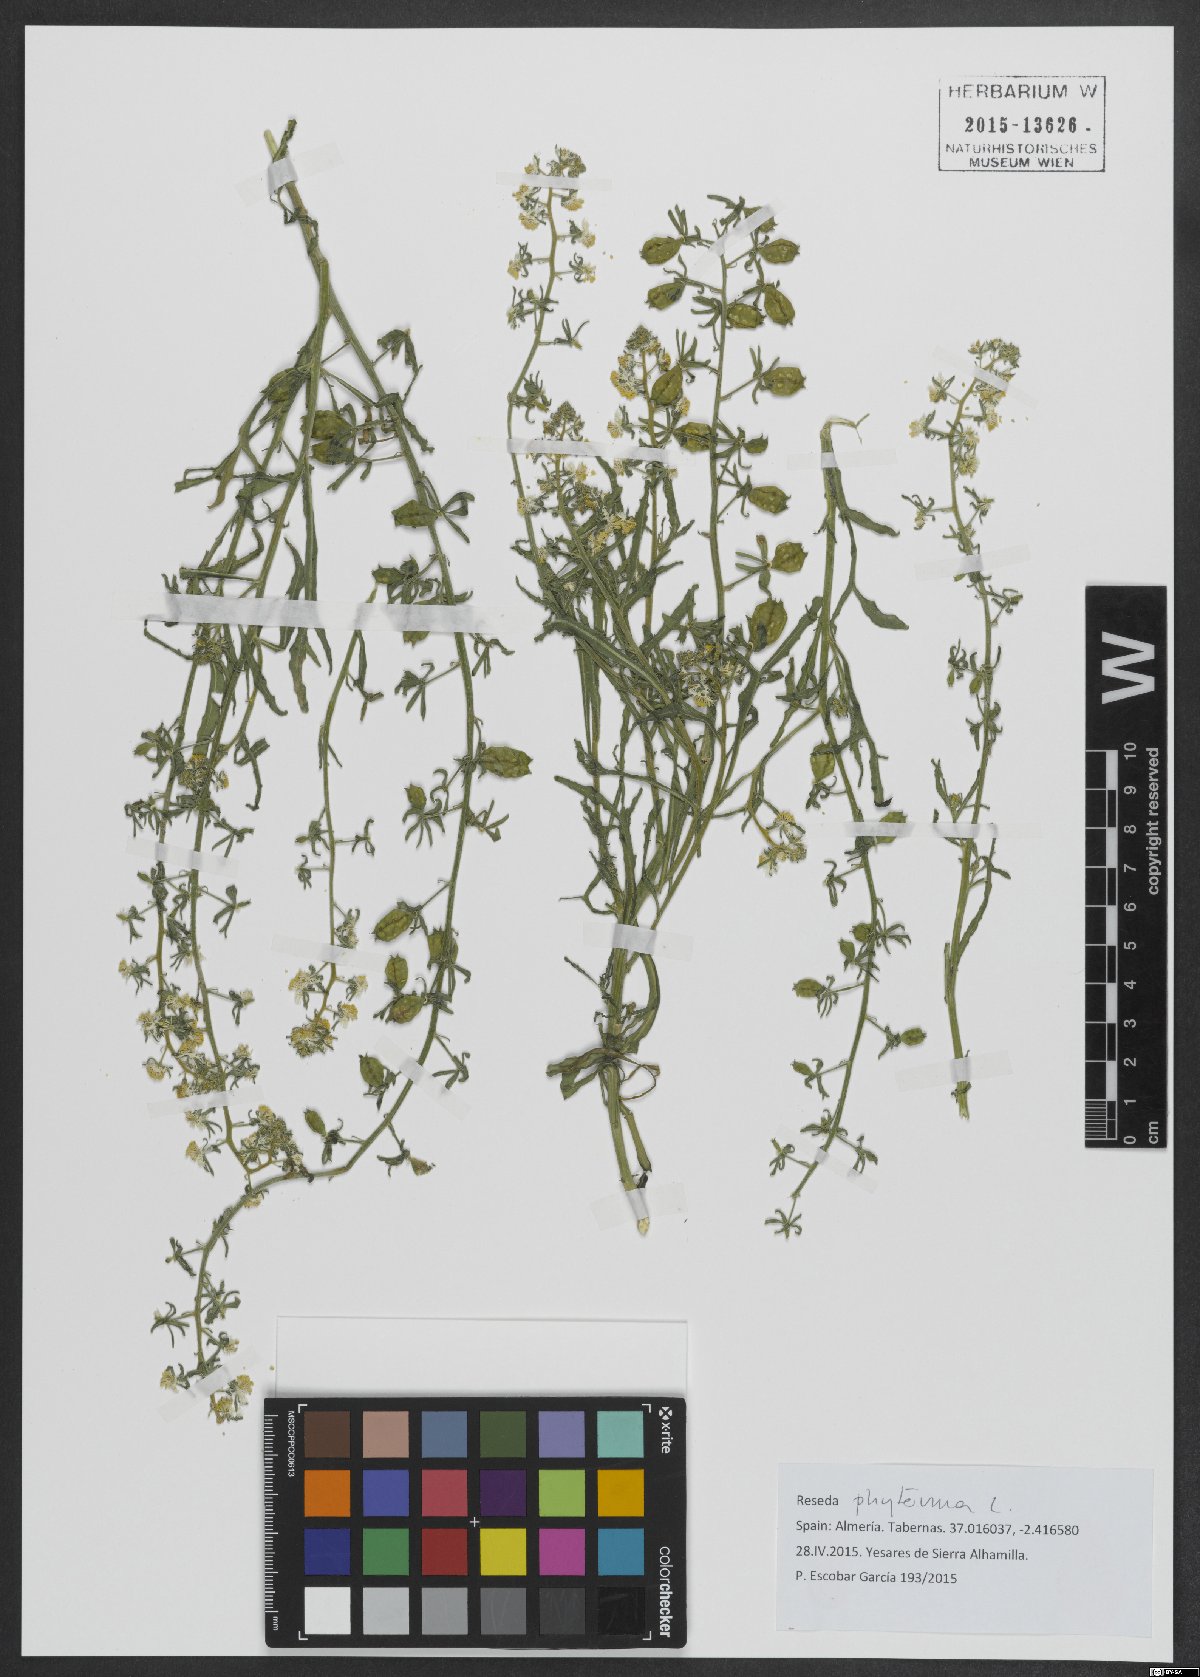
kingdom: Plantae
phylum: Tracheophyta
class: Magnoliopsida
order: Brassicales
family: Resedaceae
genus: Reseda
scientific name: Reseda phyteuma
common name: Corn mignonette
